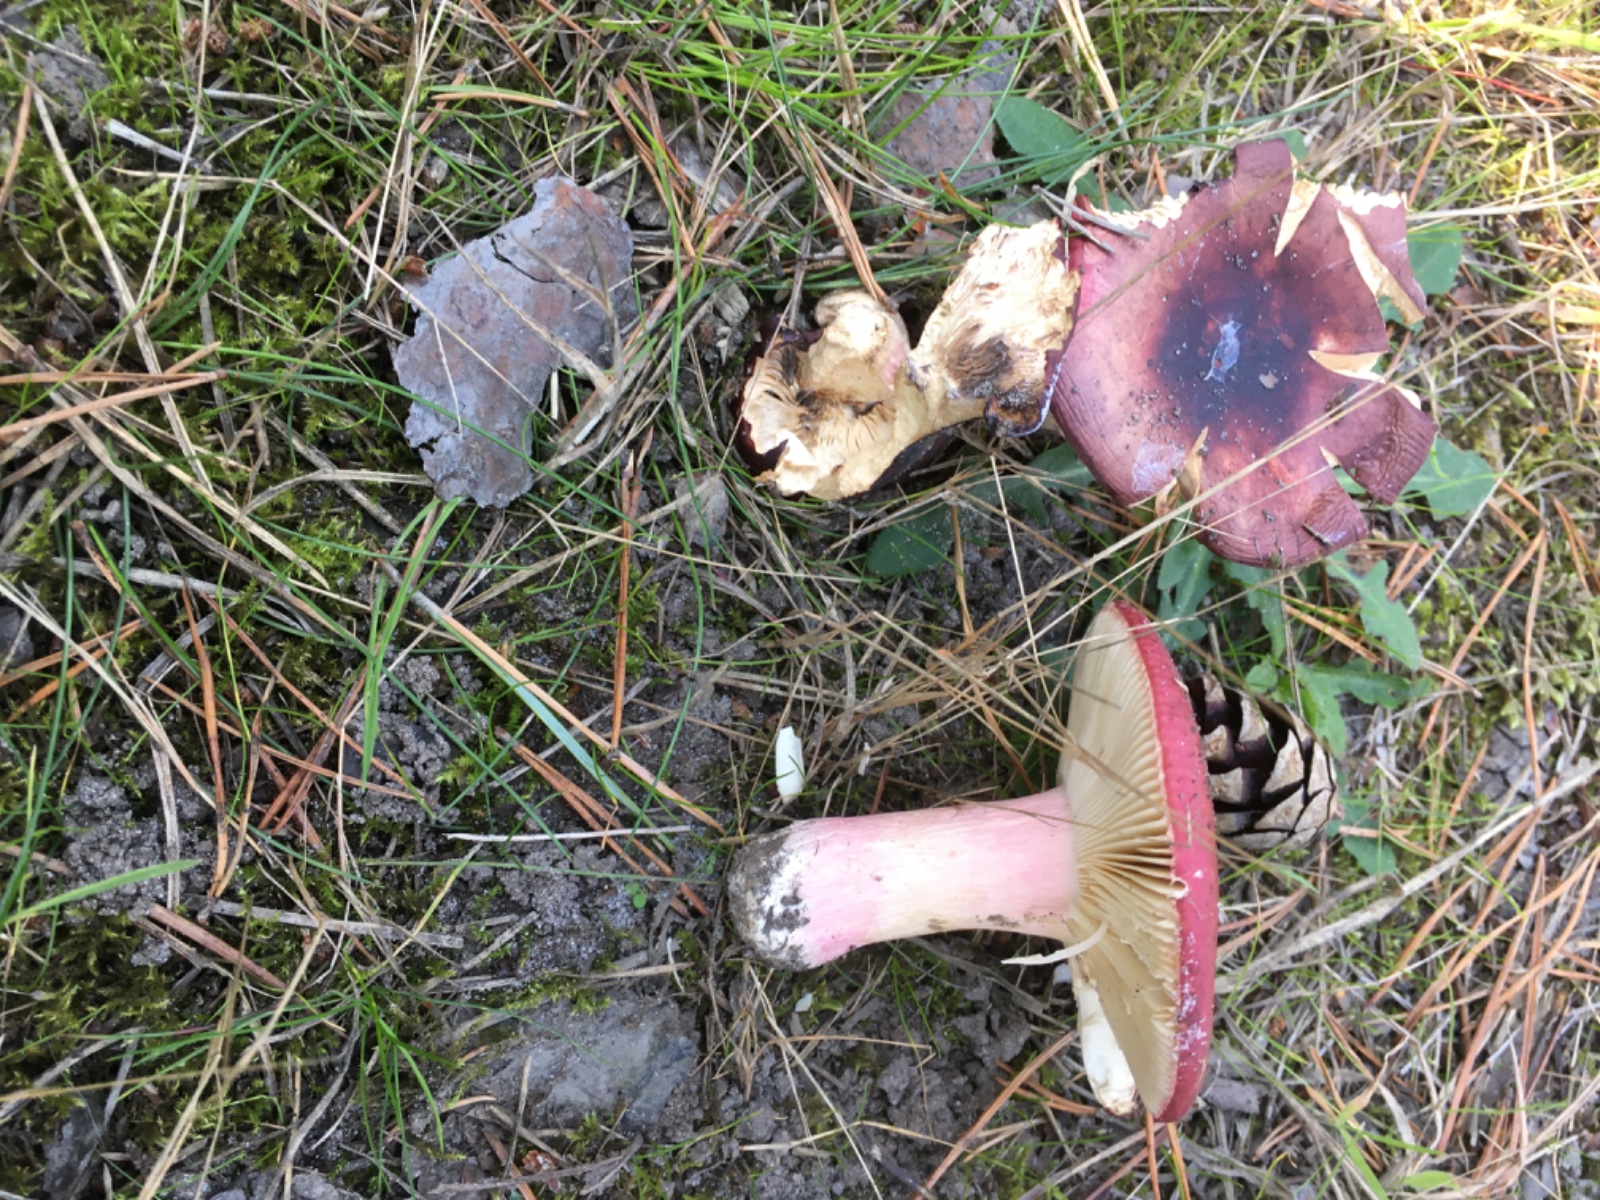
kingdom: Fungi
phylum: Basidiomycota
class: Agaricomycetes
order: Russulales
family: Russulaceae
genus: Russula
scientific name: Russula xerampelina
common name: hummer-skørhat
